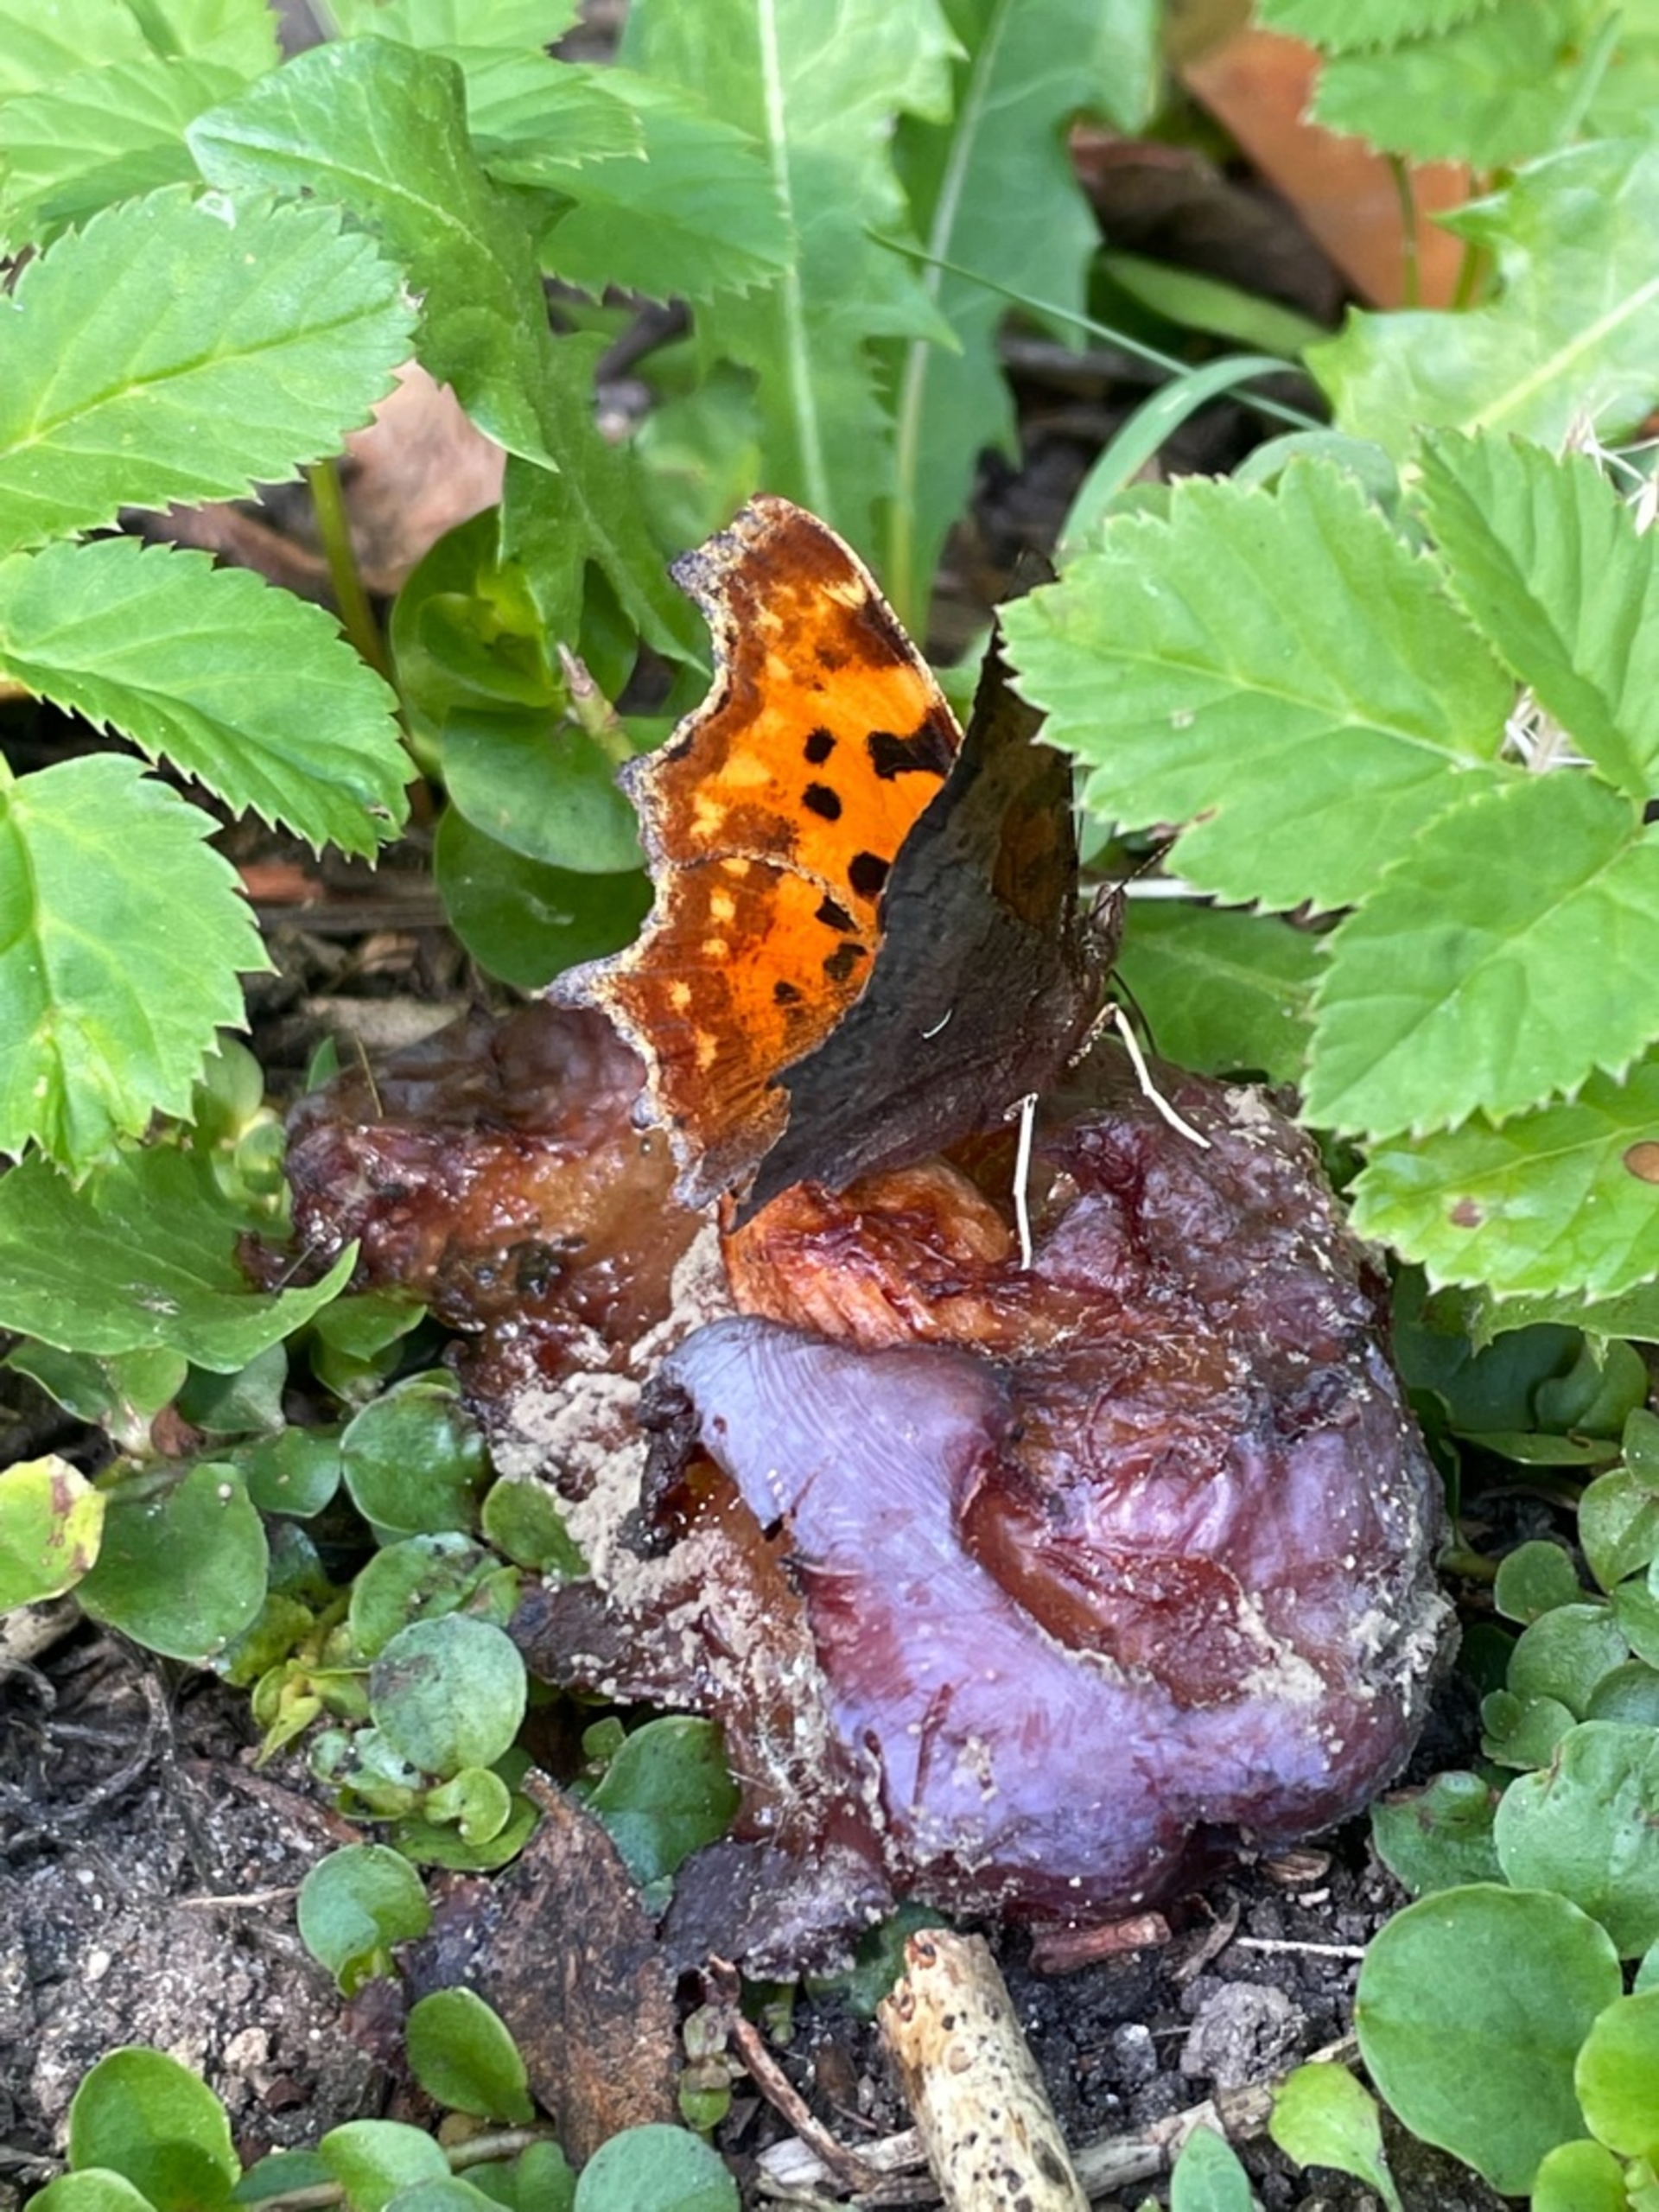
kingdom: Animalia
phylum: Arthropoda
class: Insecta
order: Lepidoptera
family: Nymphalidae
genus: Polygonia
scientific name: Polygonia c-album
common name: Det hvide C
